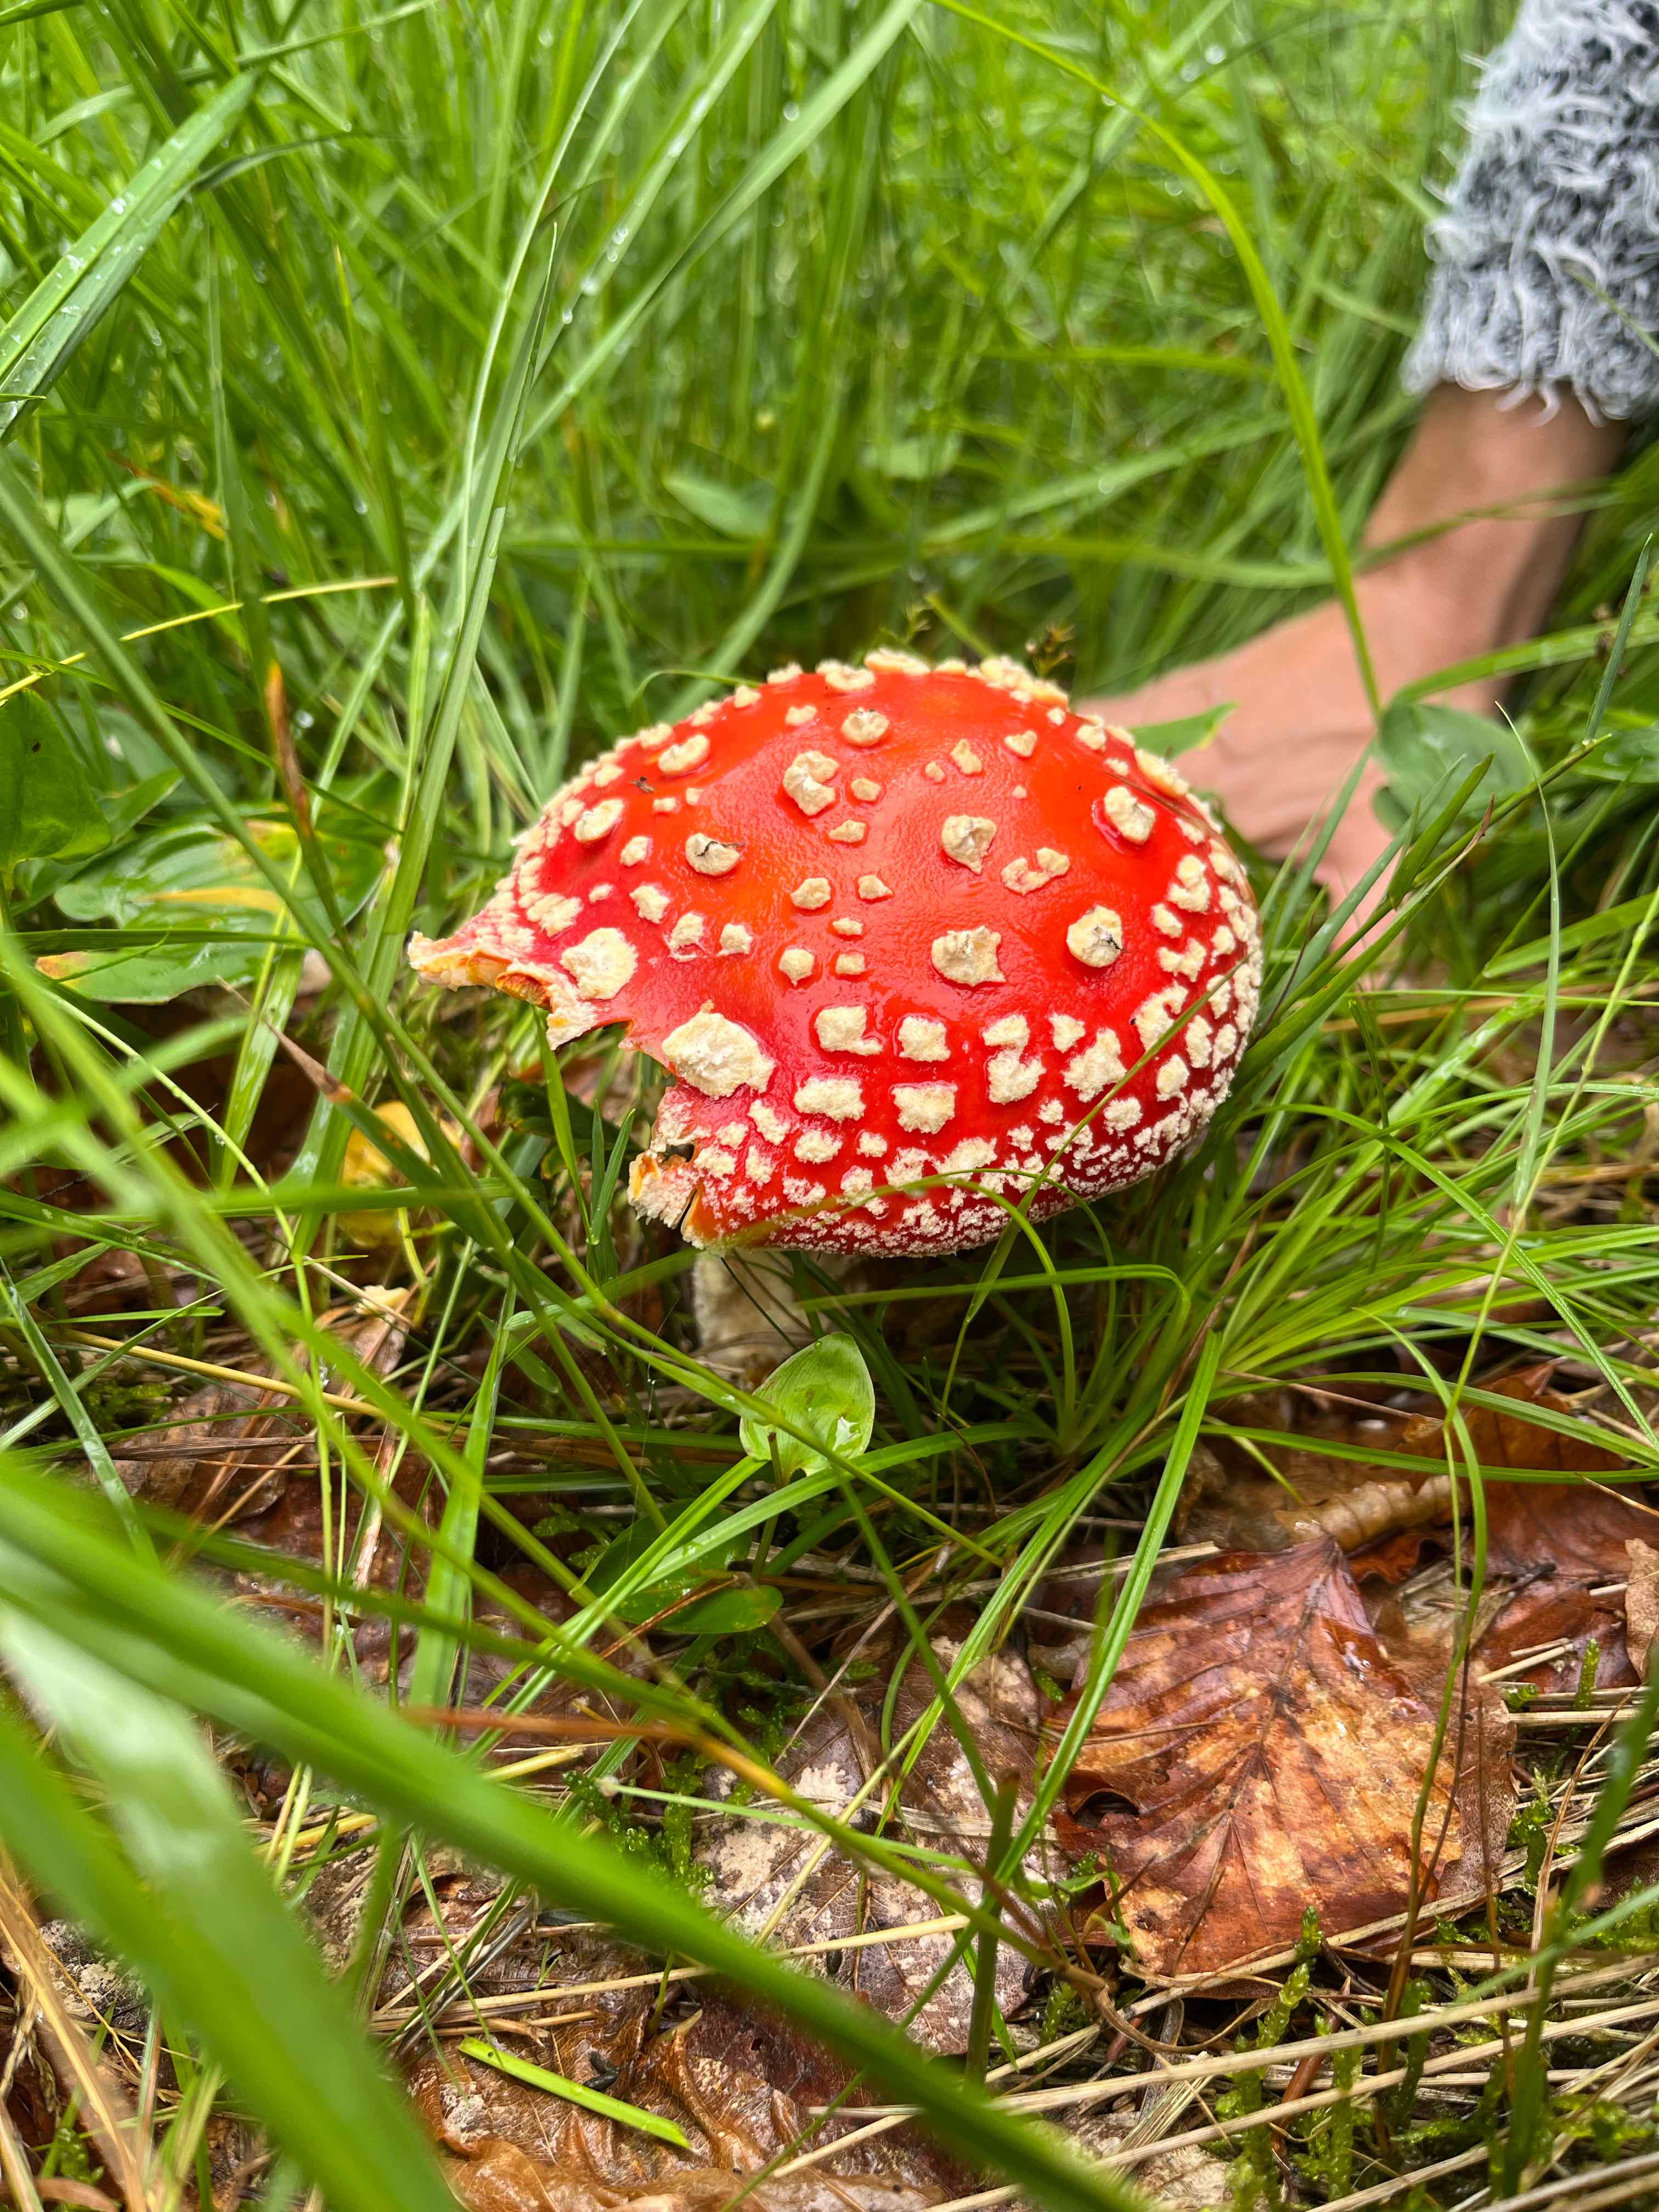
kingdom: Fungi
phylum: Basidiomycota
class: Agaricomycetes
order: Agaricales
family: Amanitaceae
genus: Amanita
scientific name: Amanita muscaria
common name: rød fluesvamp
